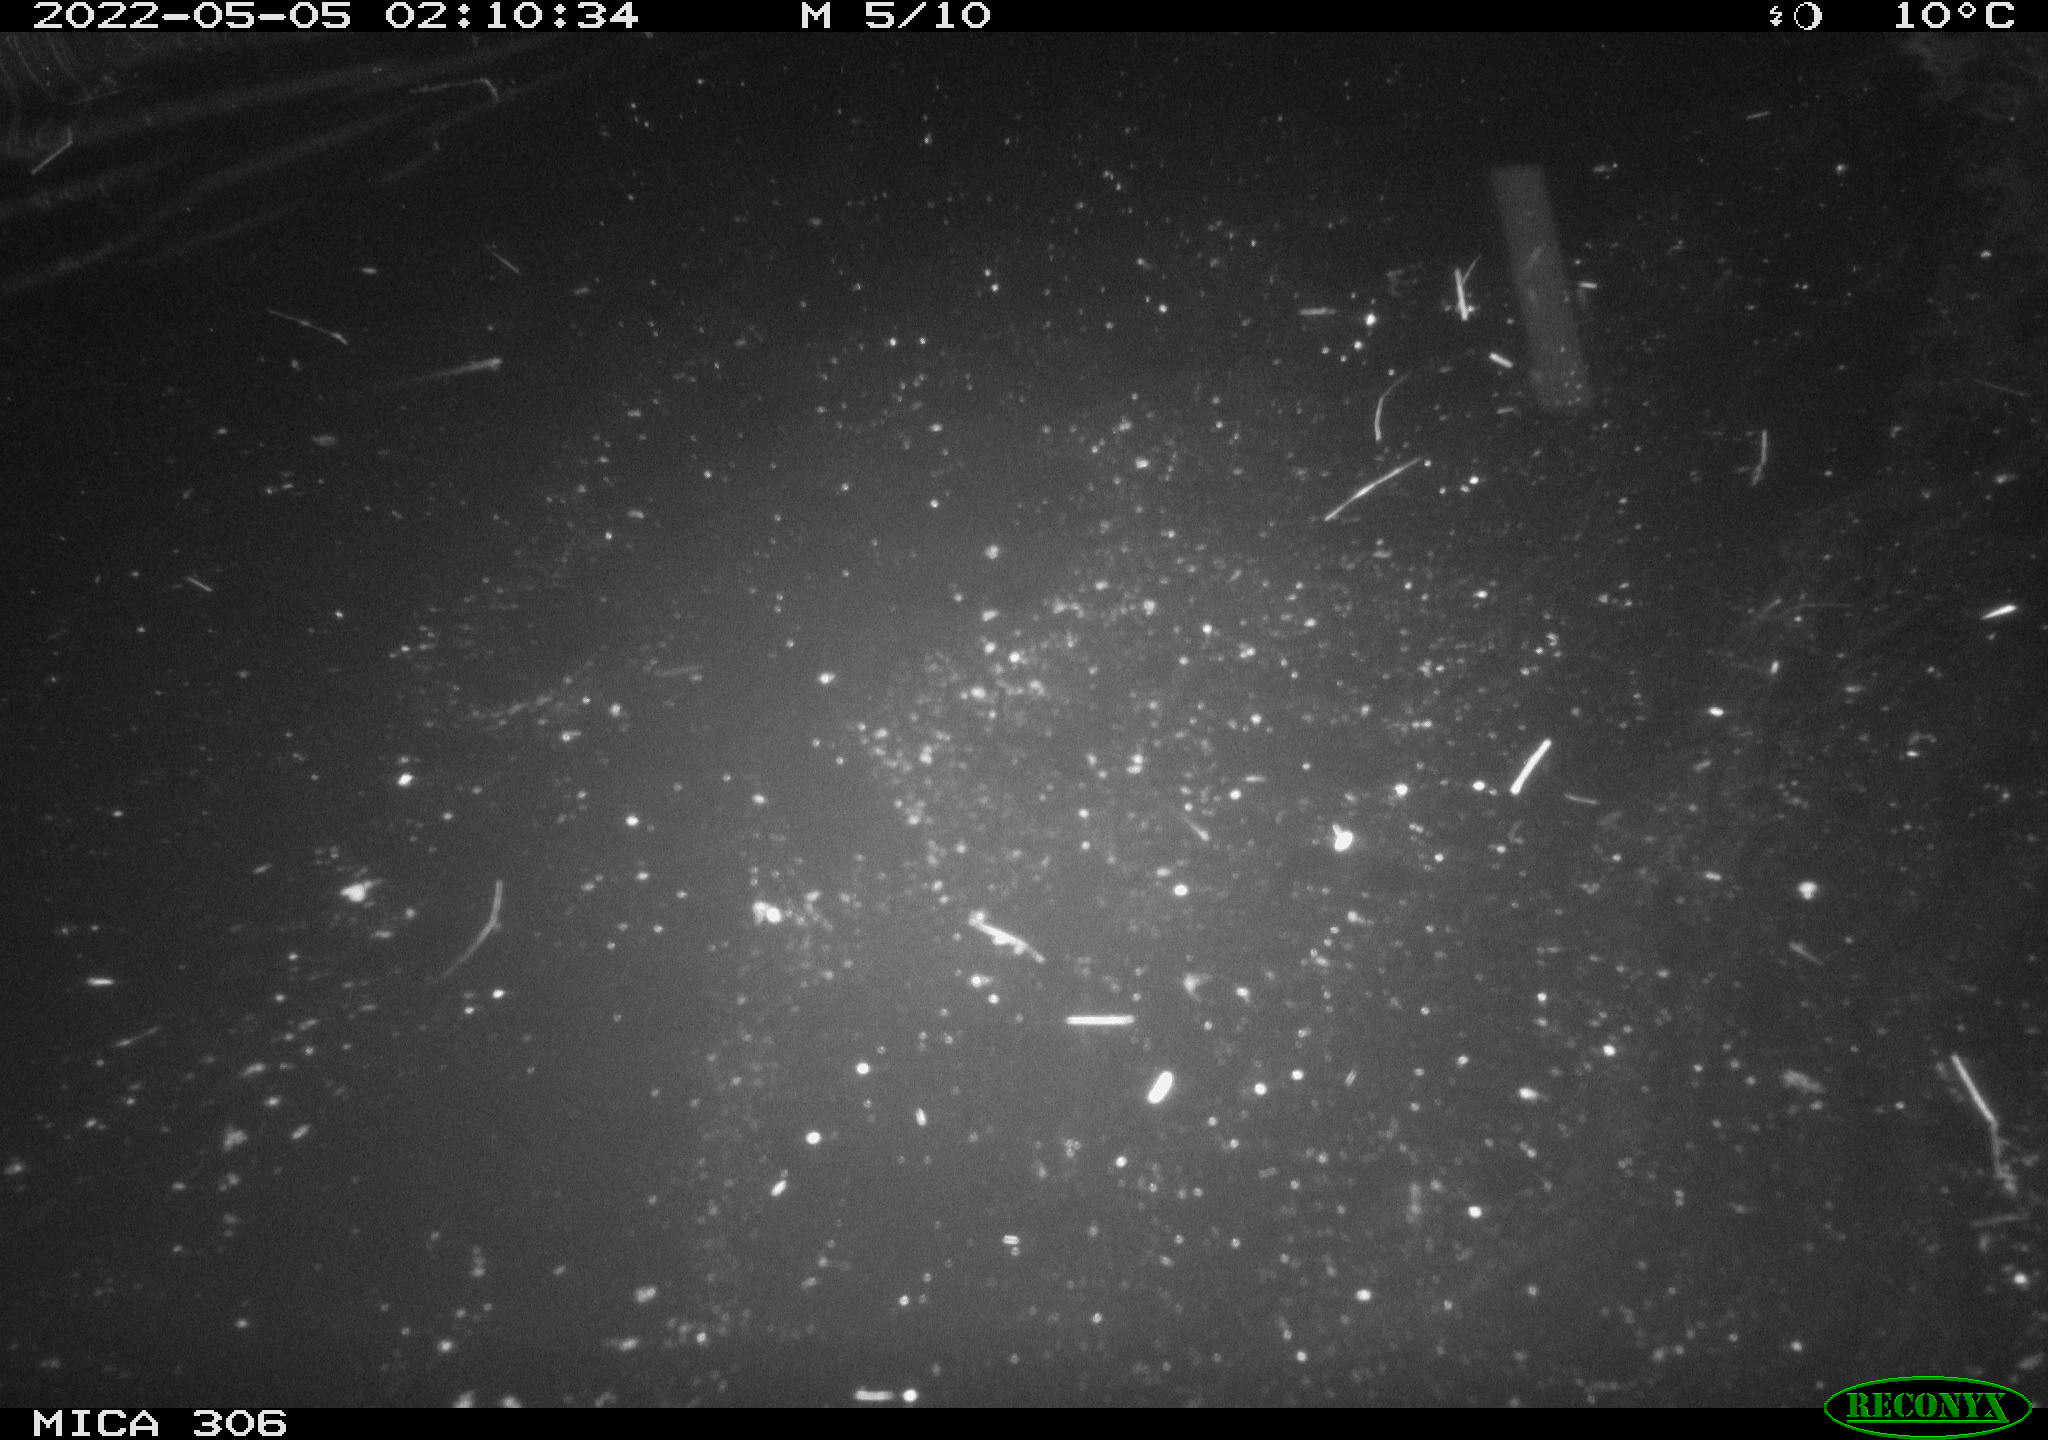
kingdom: Animalia
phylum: Chordata
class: Mammalia
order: Rodentia
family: Cricetidae
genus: Ondatra
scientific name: Ondatra zibethicus
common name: Muskrat
